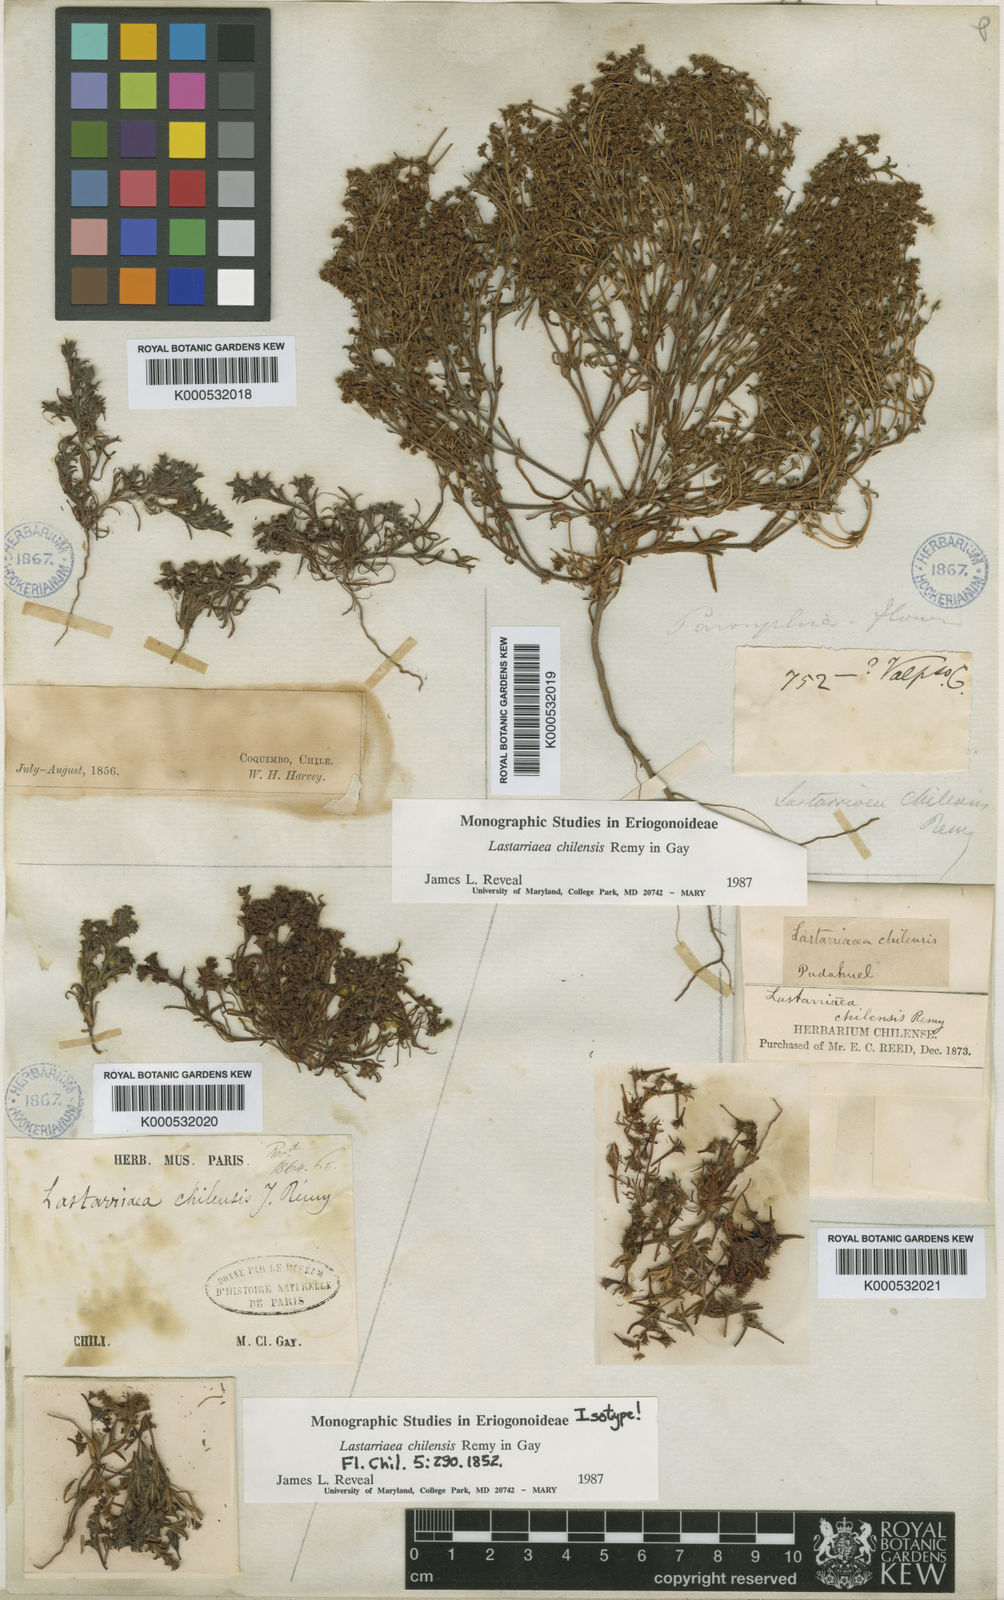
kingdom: Plantae
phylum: Tracheophyta
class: Magnoliopsida
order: Caryophyllales
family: Polygonaceae
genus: Lastarriaea
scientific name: Lastarriaea
